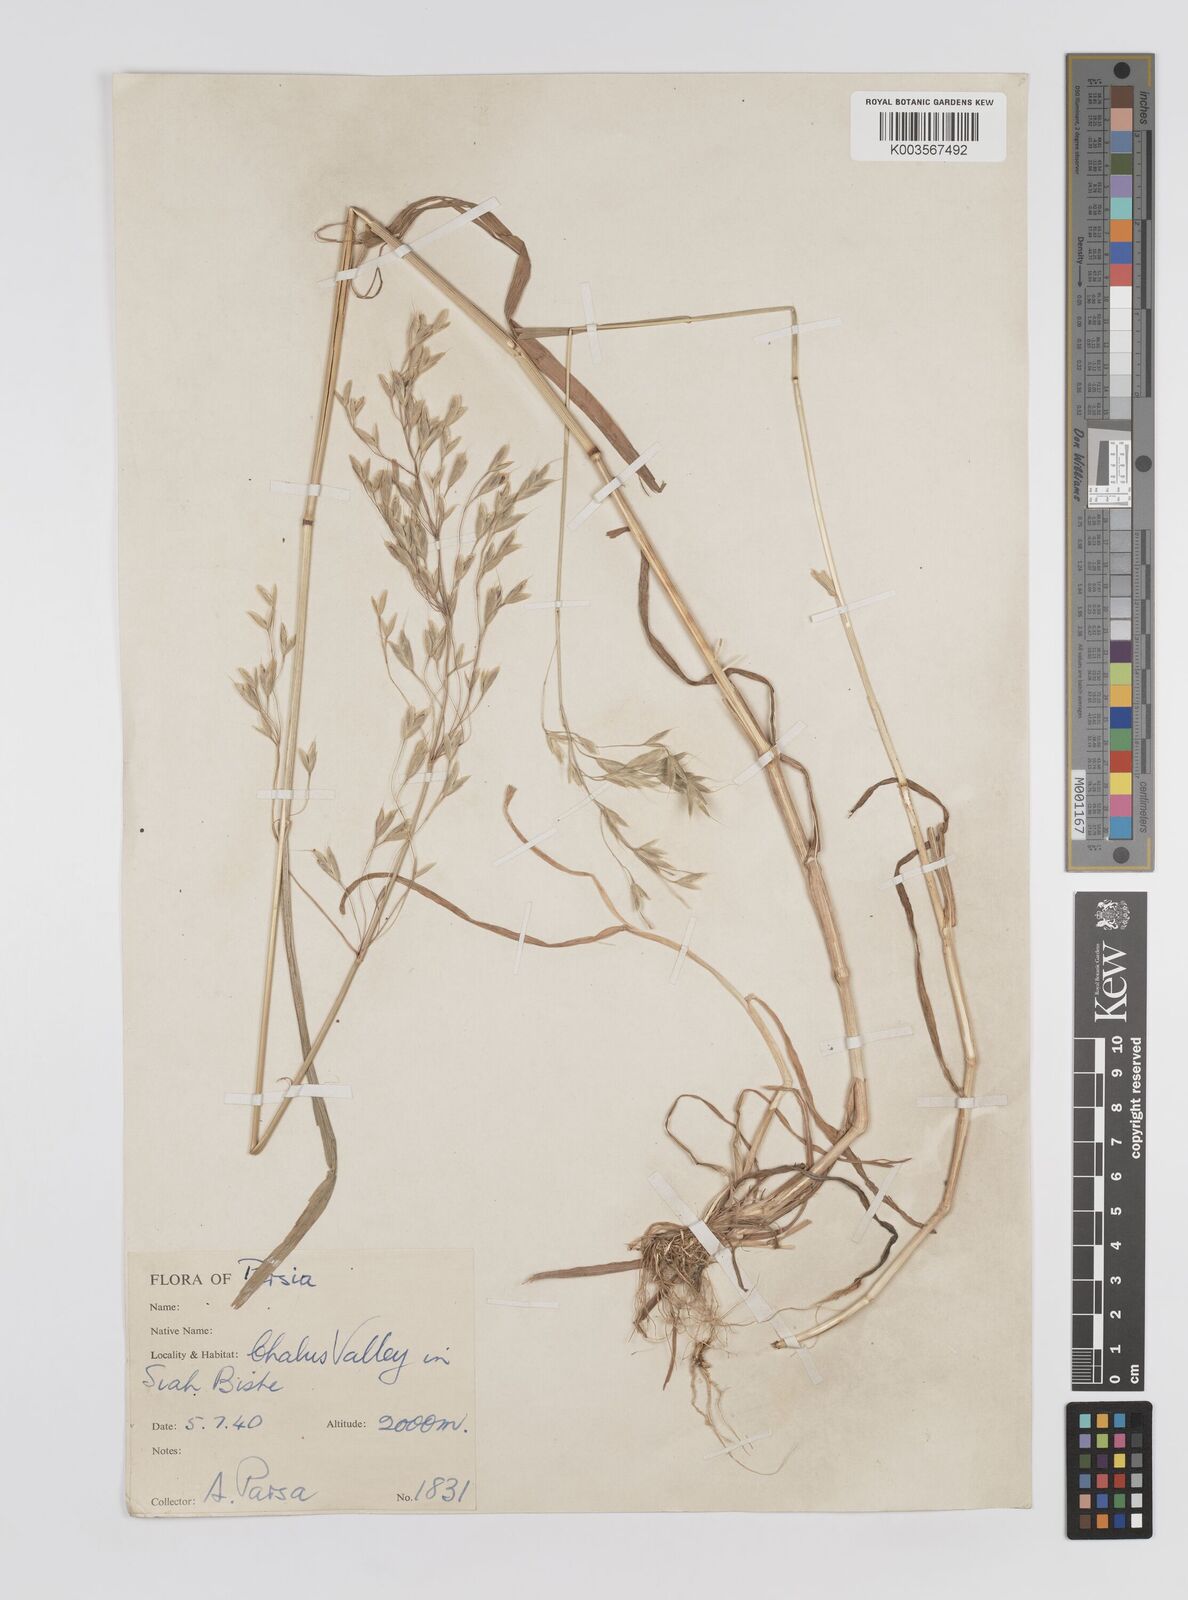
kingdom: Plantae
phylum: Tracheophyta
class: Liliopsida
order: Poales
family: Poaceae
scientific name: Poaceae
